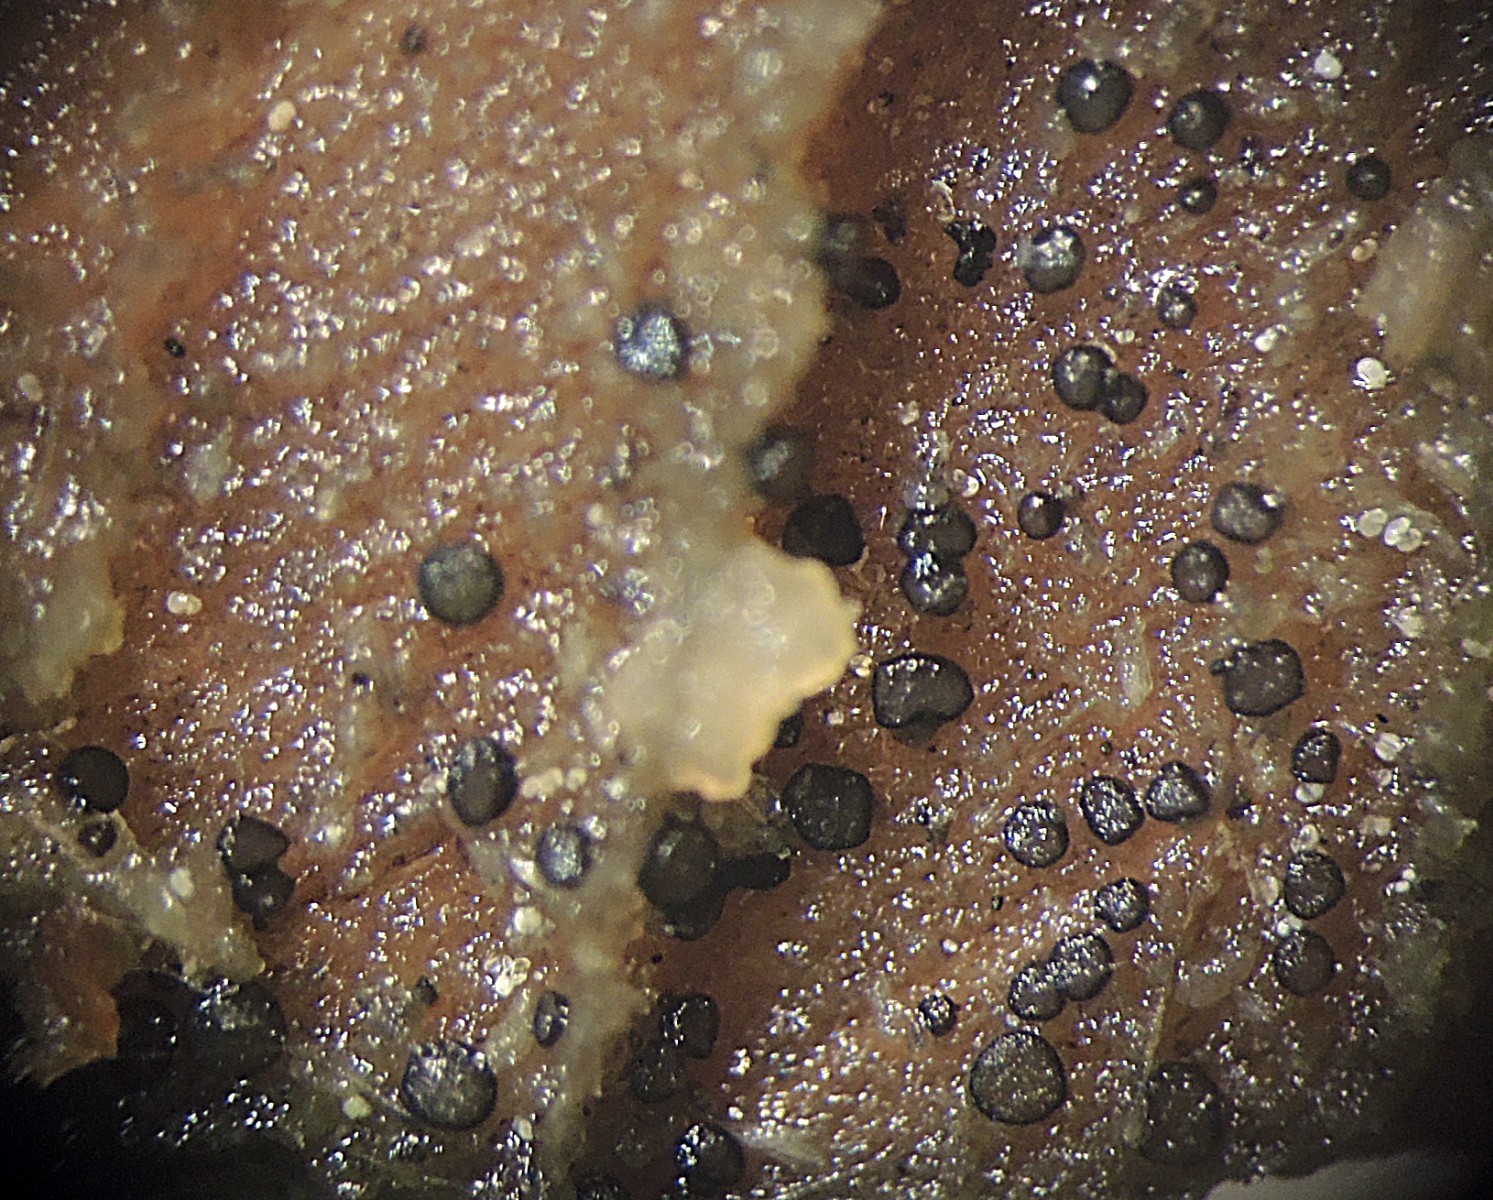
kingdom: Fungi
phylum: Ascomycota
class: Leotiomycetes
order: Helotiales
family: Helotiaceae
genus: Durella
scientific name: Durella macrospora
